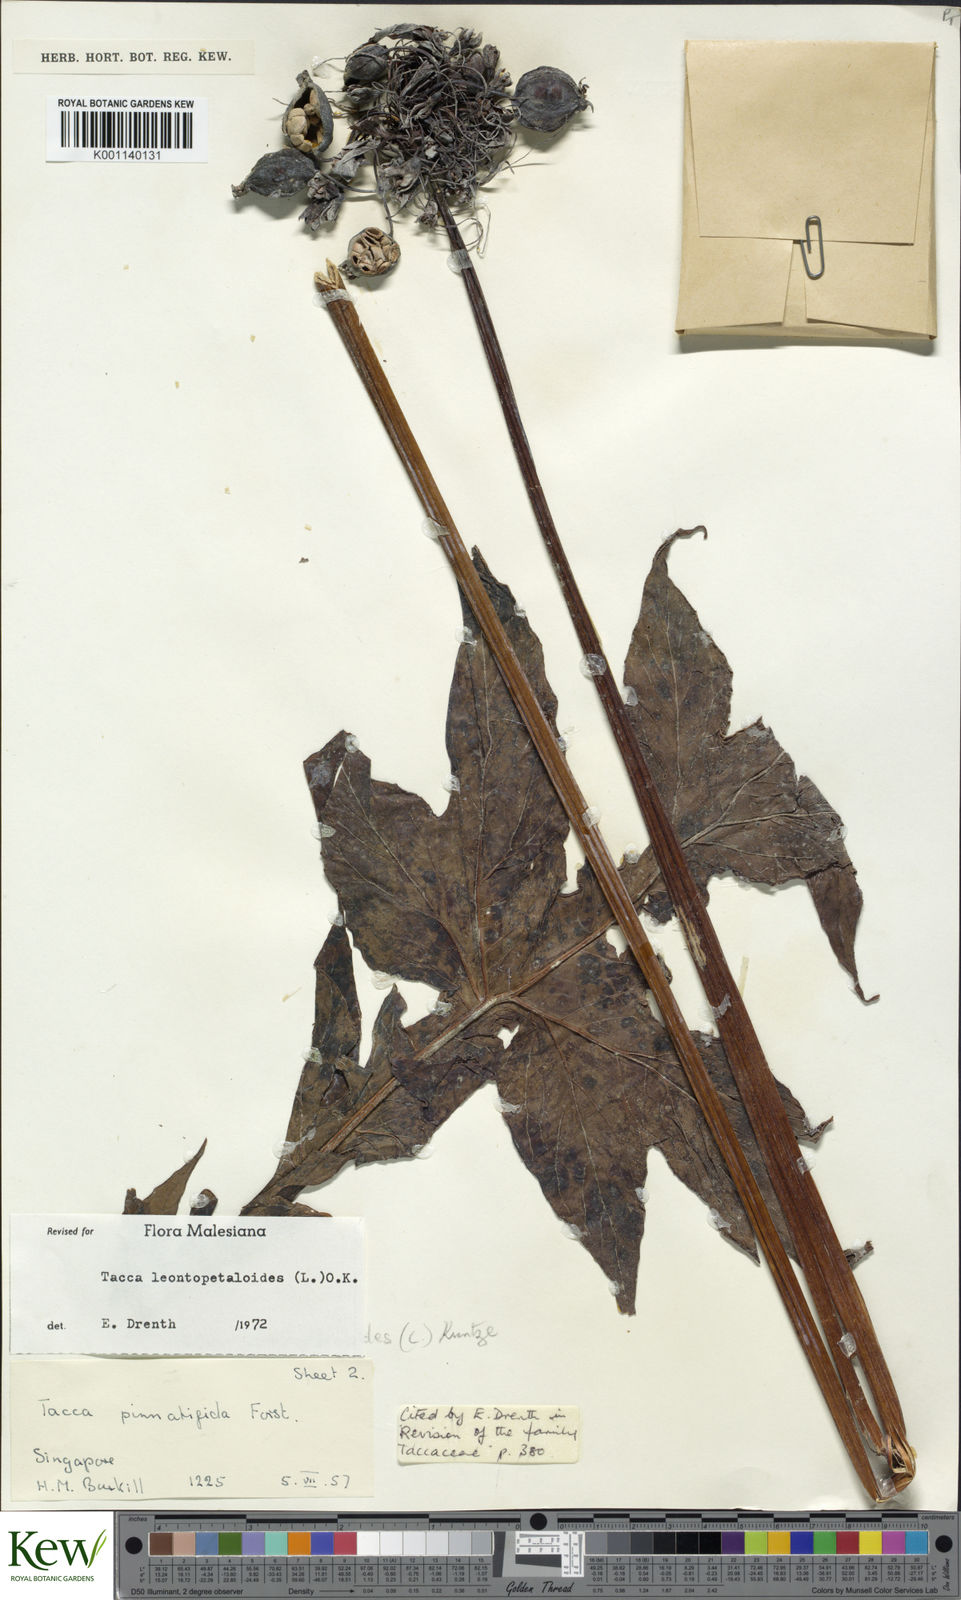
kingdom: Plantae
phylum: Tracheophyta
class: Liliopsida
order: Dioscoreales
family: Dioscoreaceae
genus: Tacca
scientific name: Tacca leontopetaloides
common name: Arrowroot
